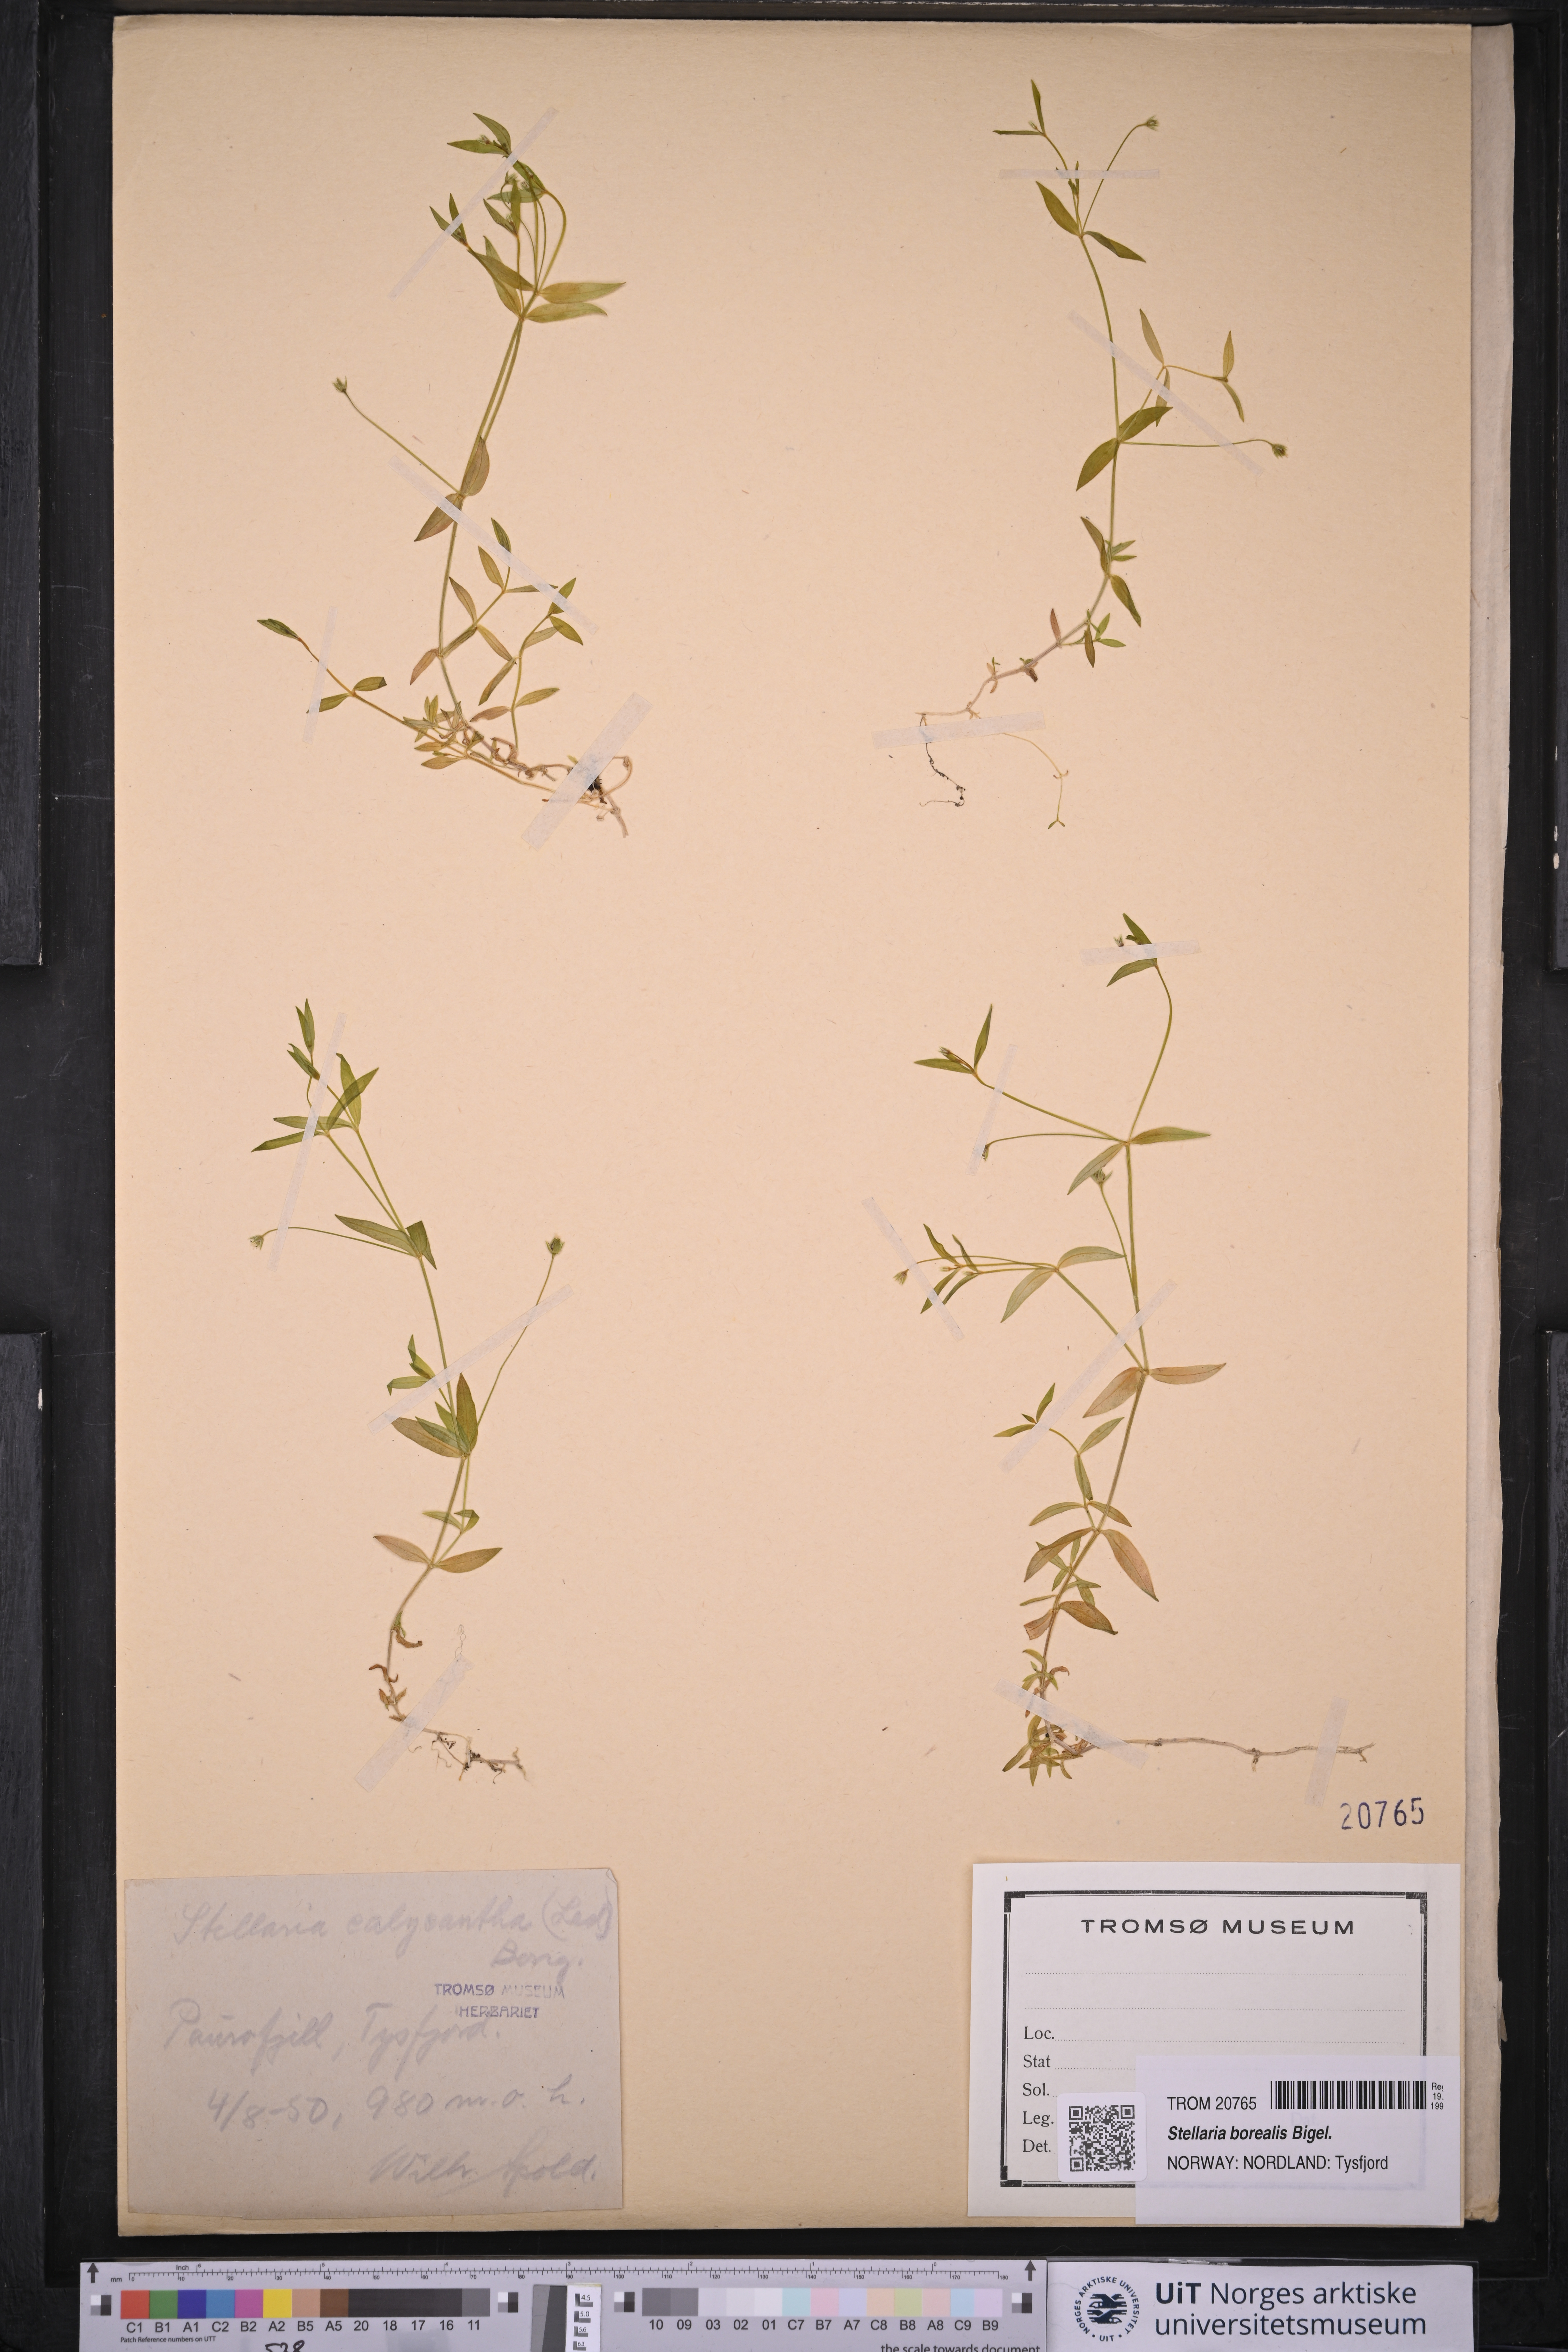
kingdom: Plantae
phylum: Tracheophyta
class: Magnoliopsida
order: Caryophyllales
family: Caryophyllaceae
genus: Stellaria
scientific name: Stellaria borealis
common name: Boreal starwort
